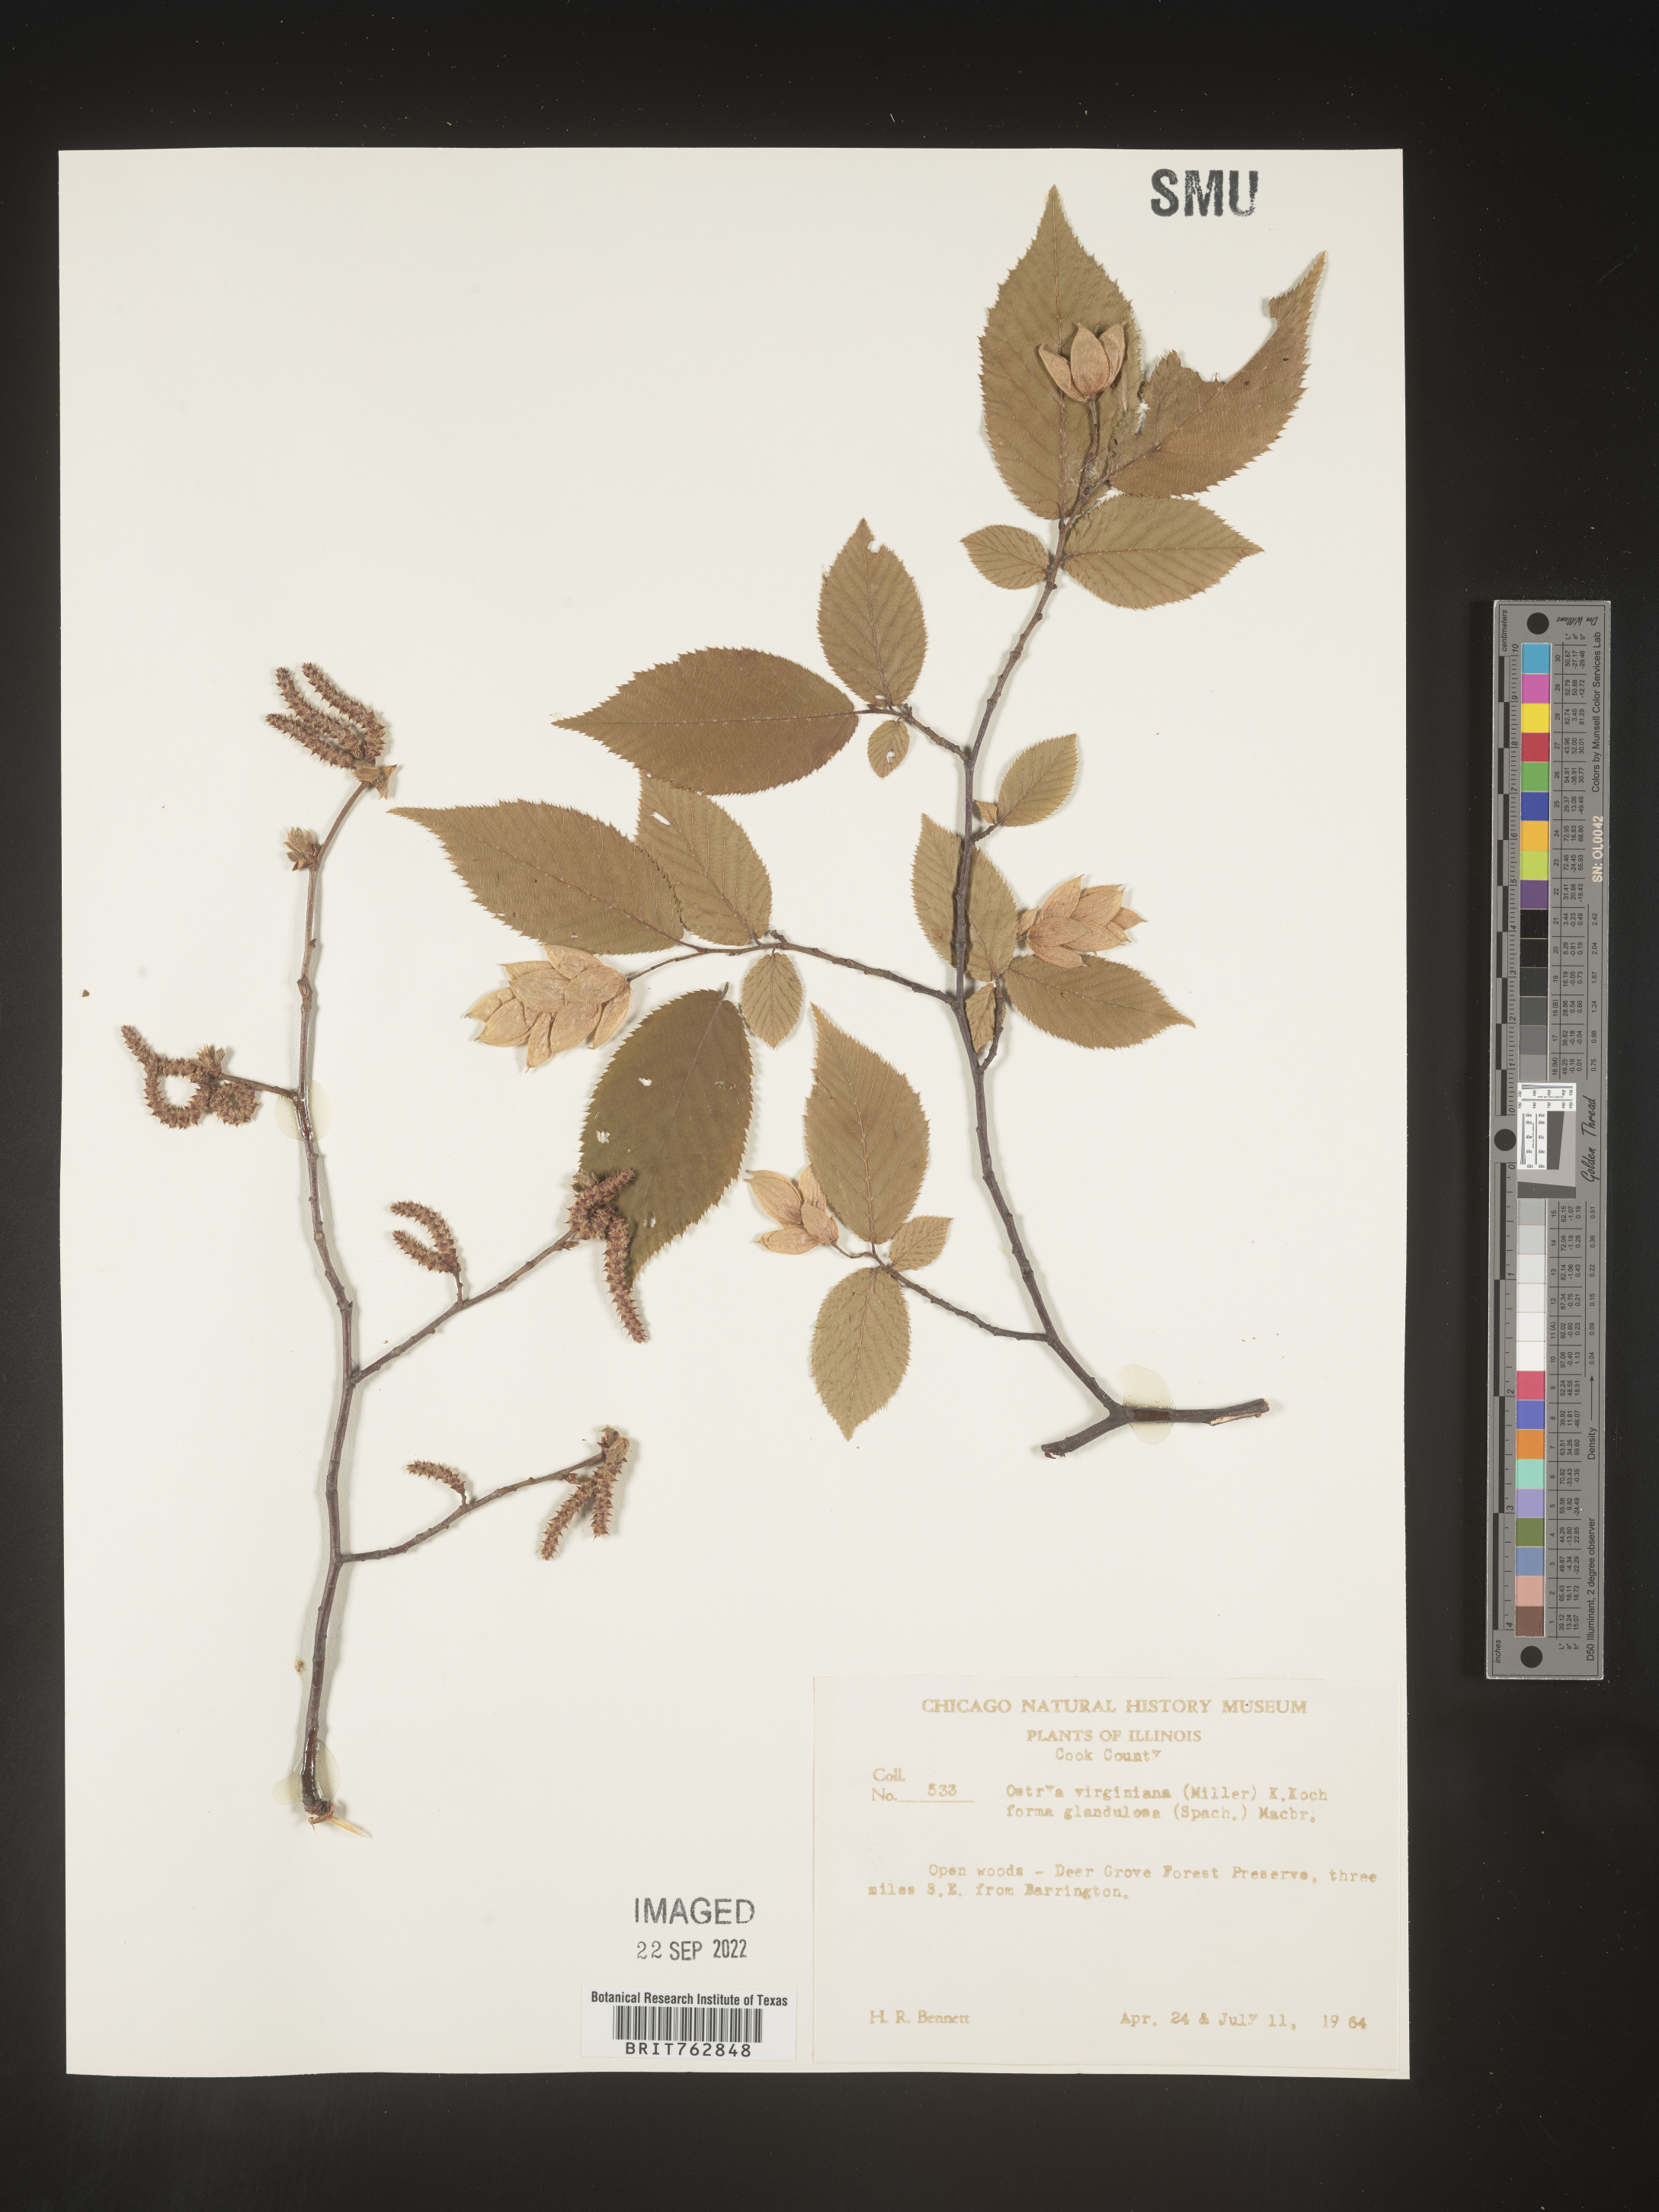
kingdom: Plantae
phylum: Tracheophyta
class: Magnoliopsida
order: Fagales
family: Betulaceae
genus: Ostrya
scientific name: Ostrya virginiana
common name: Ironwood
